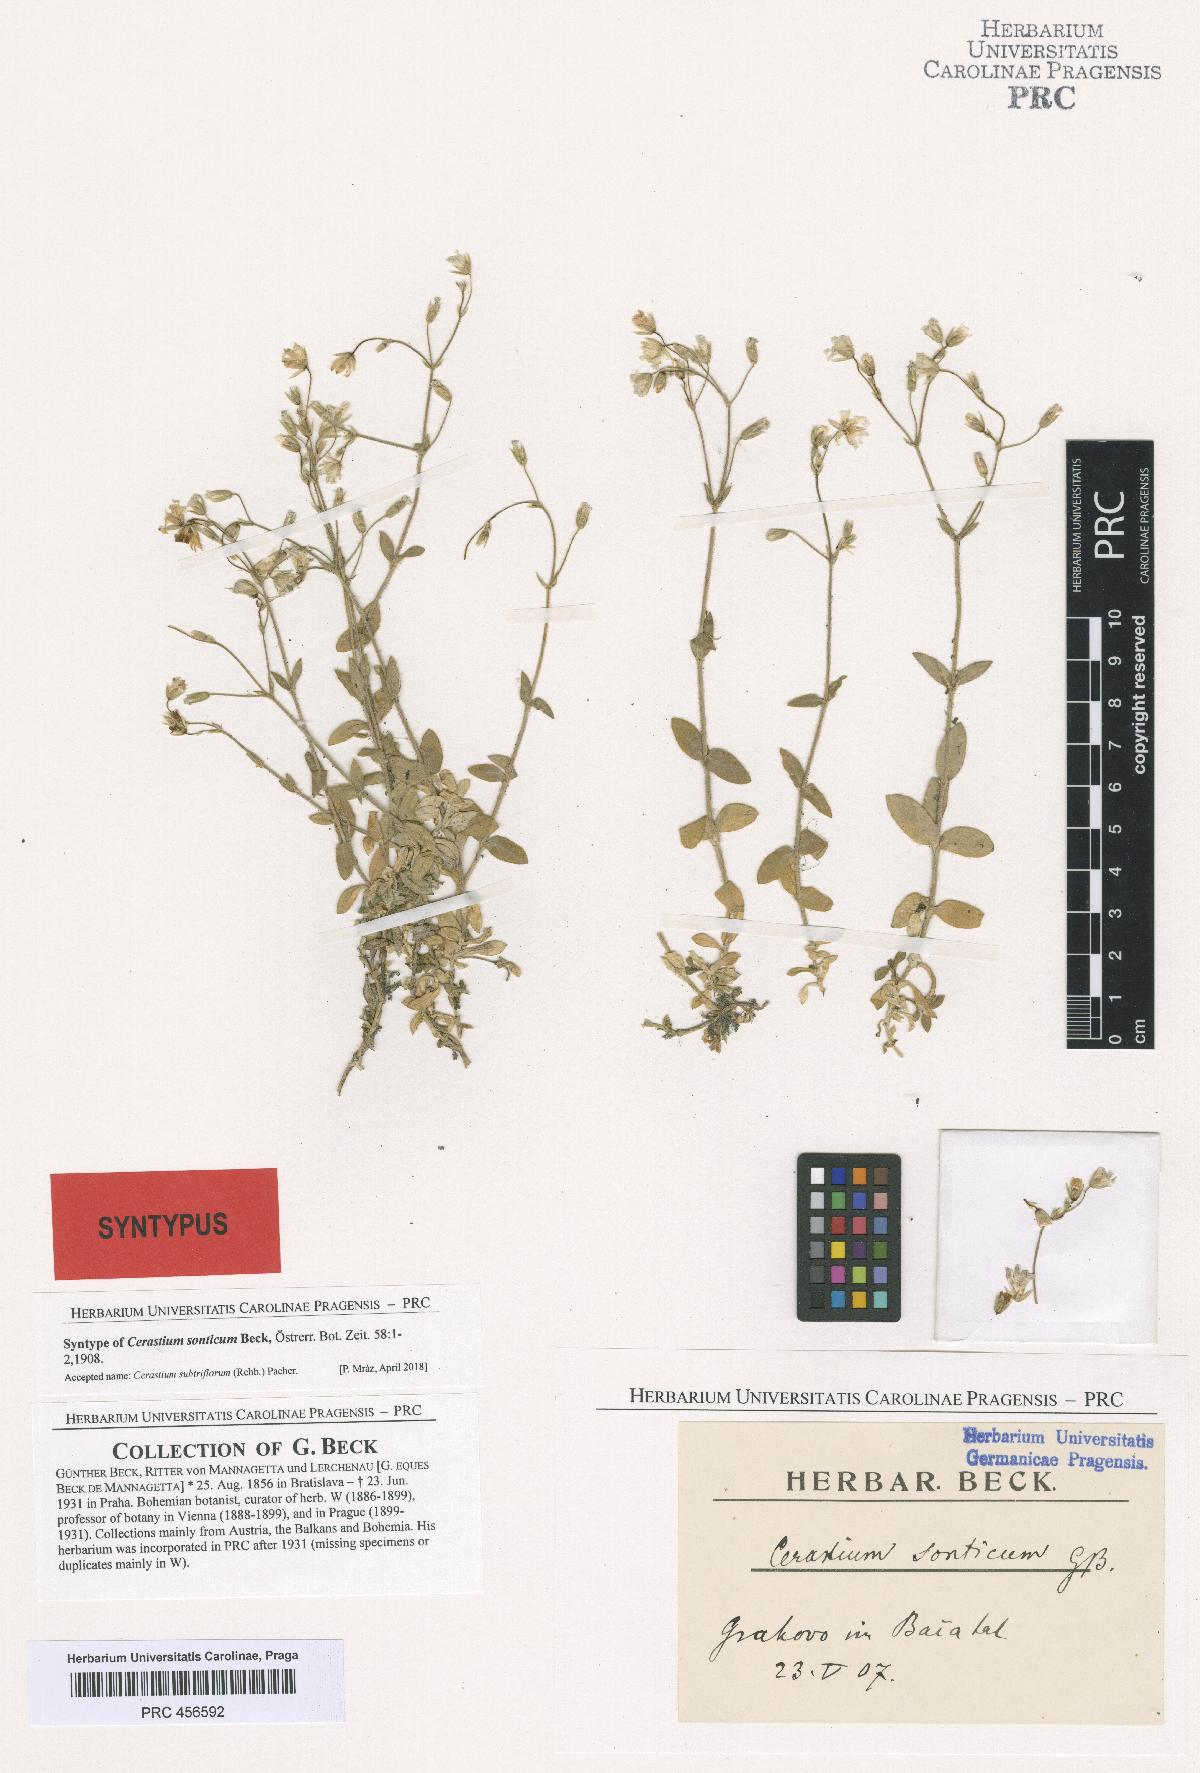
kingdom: Plantae
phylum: Tracheophyta
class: Magnoliopsida
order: Caryophyllales
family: Caryophyllaceae
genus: Cerastium
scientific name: Cerastium subtriflorum
